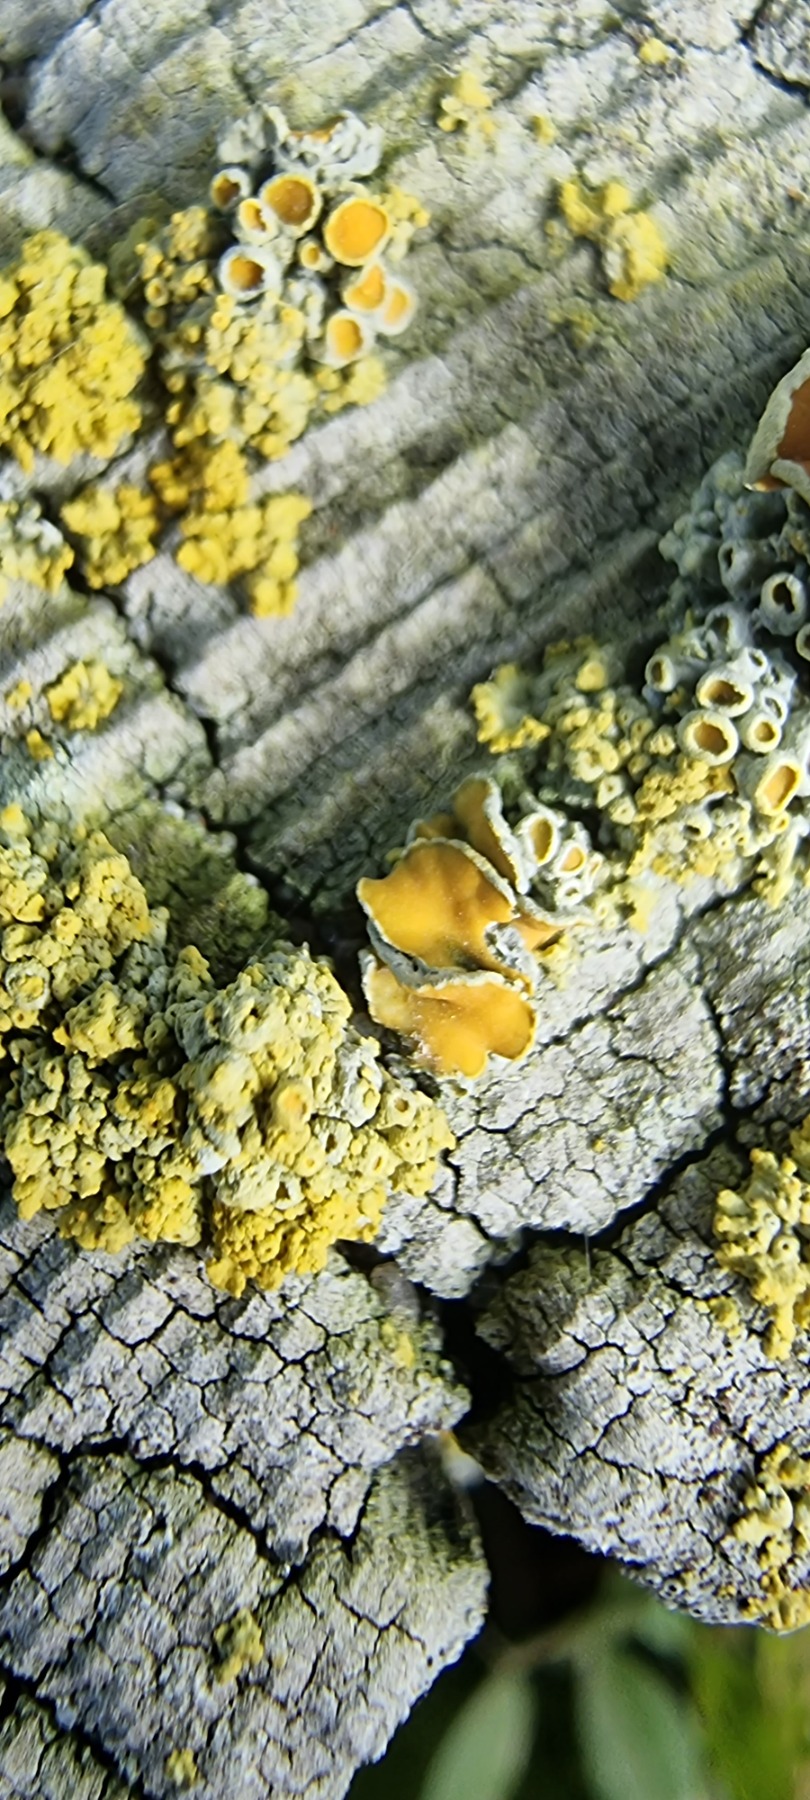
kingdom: Fungi
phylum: Ascomycota
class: Lecanoromycetes
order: Teloschistales
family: Teloschistaceae
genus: Polycauliona
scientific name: Polycauliona polycarpa
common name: Mangefrugtet orangelav
